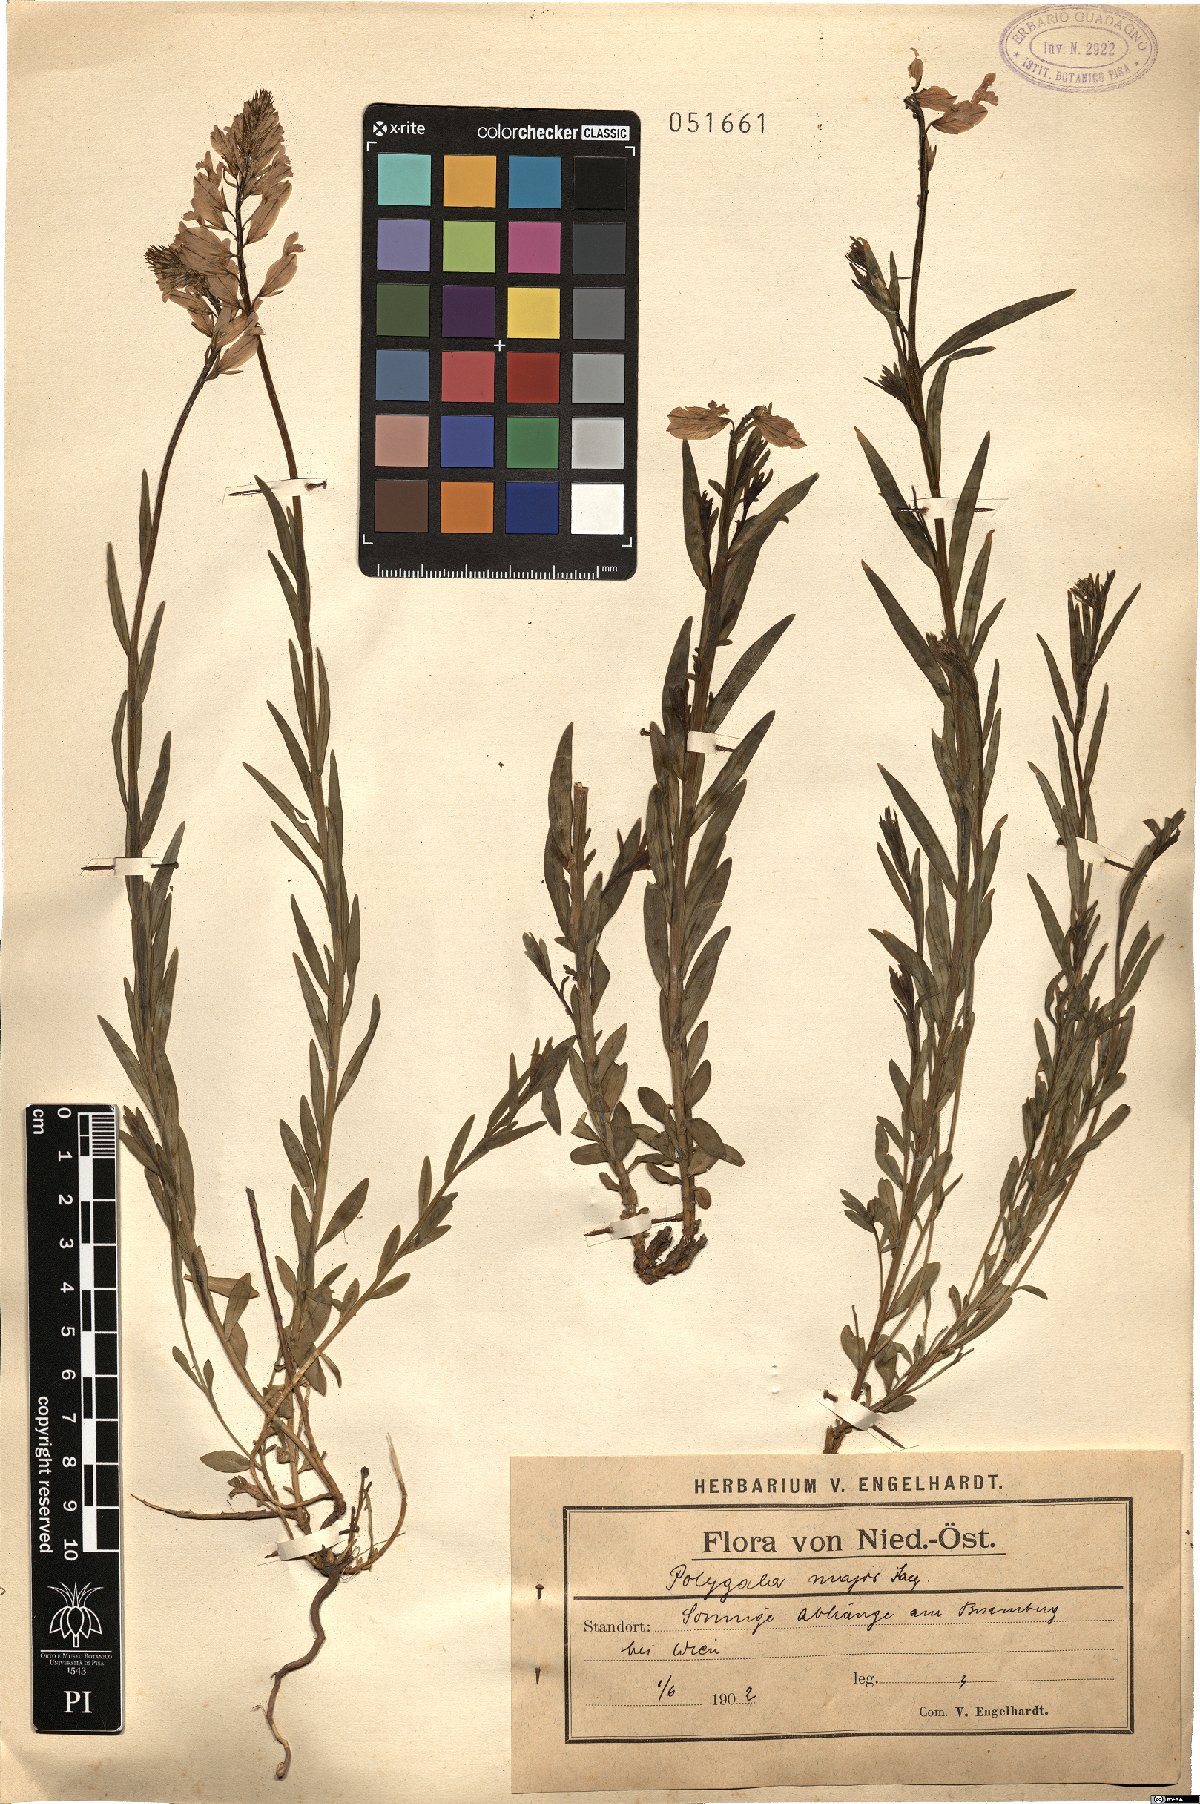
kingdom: Plantae
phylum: Tracheophyta
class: Magnoliopsida
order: Fabales
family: Polygalaceae
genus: Polygala
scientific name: Polygala major
